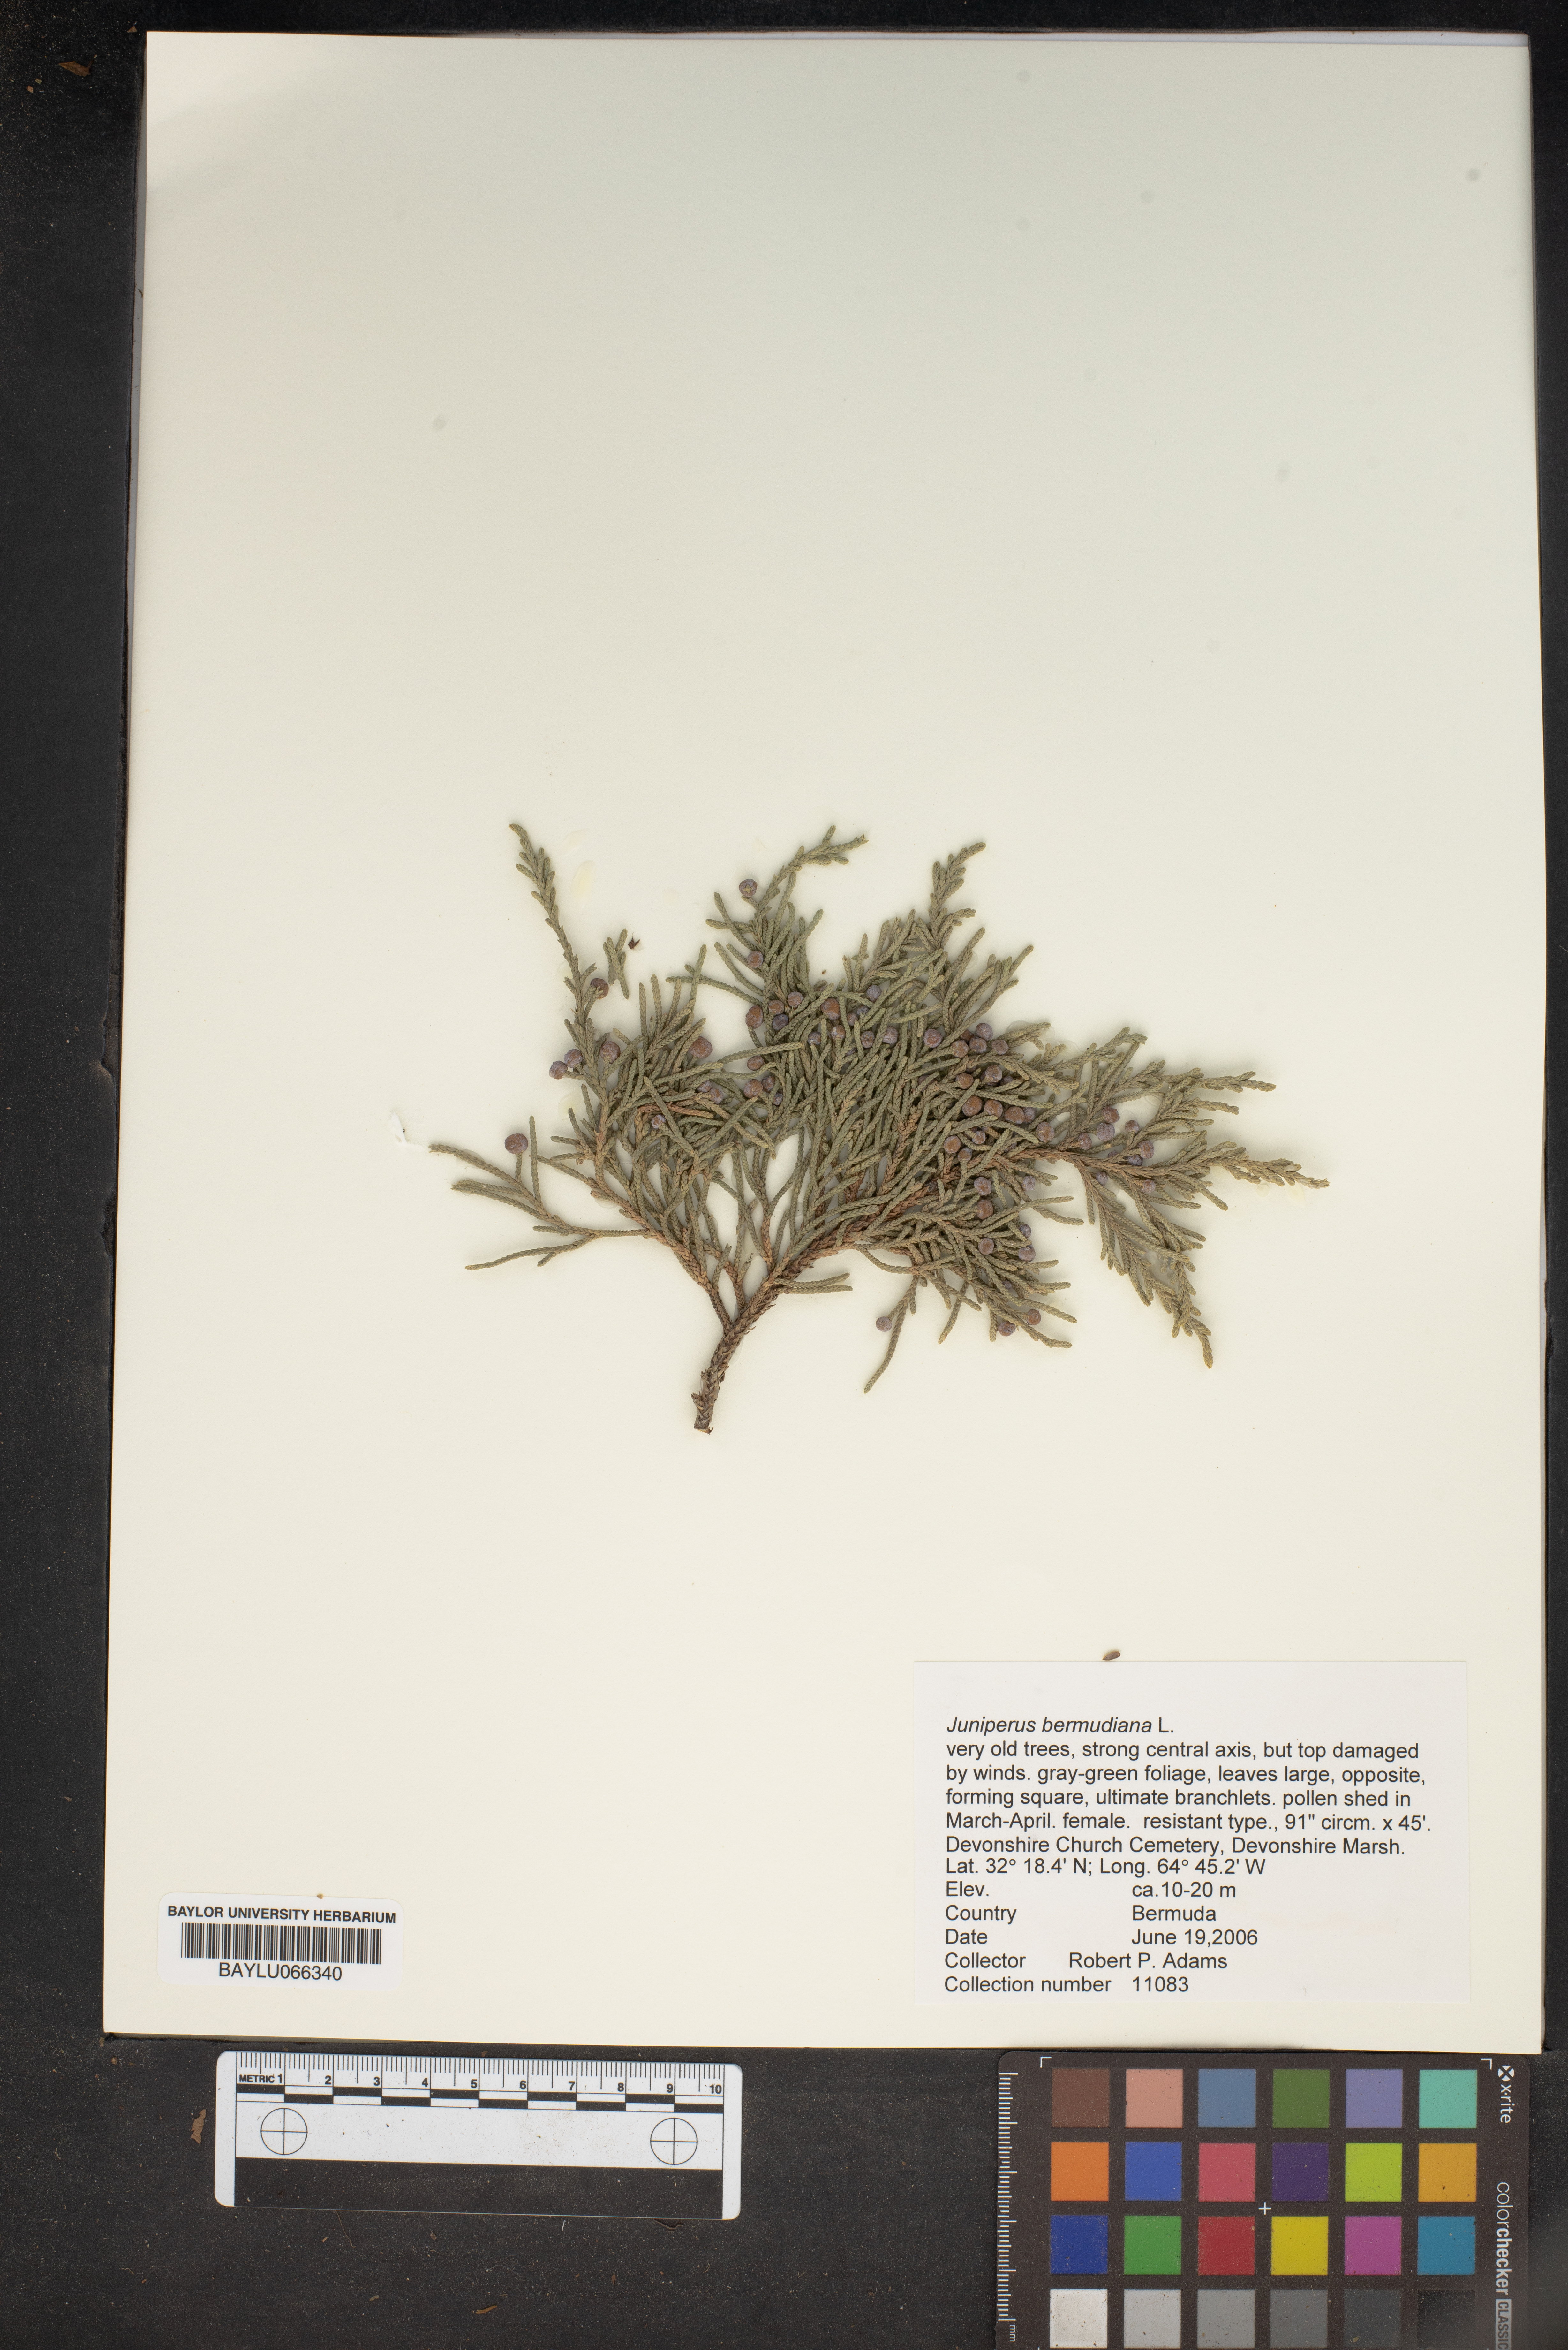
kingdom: Plantae
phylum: Tracheophyta
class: Pinopsida
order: Pinales
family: Cupressaceae
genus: Juniperus
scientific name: Juniperus bermudiana
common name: Bermuda juniper
